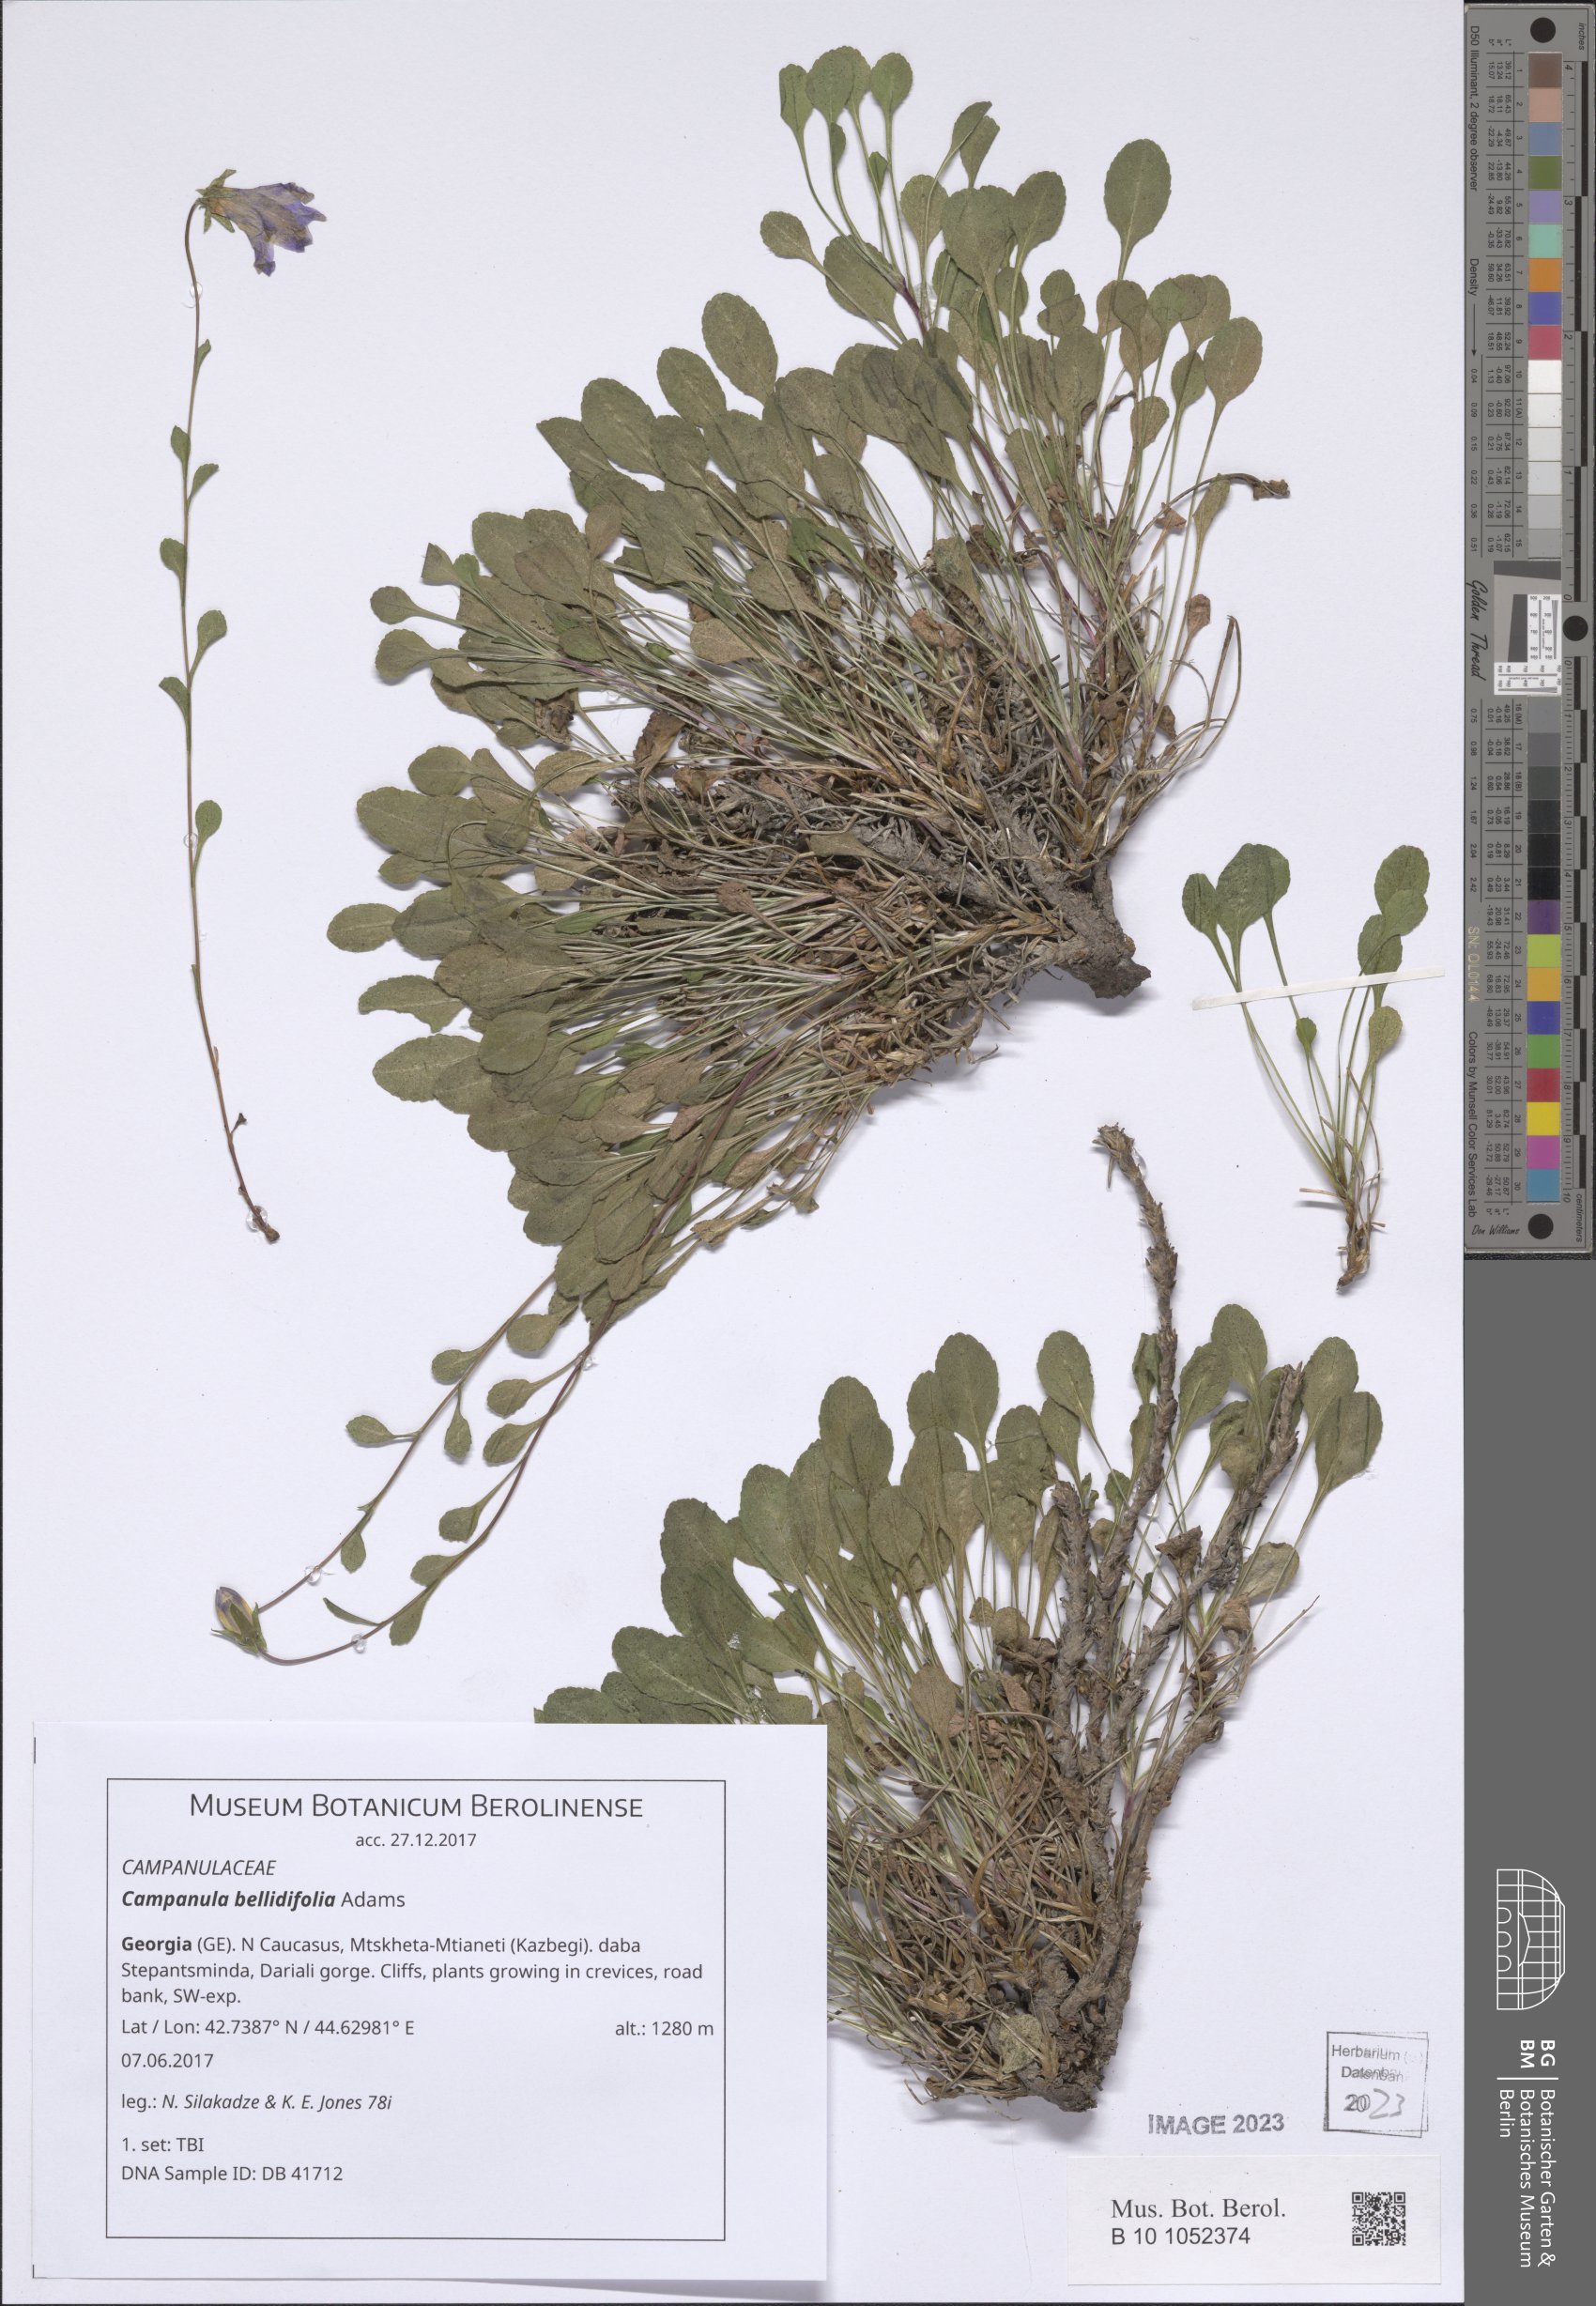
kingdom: Plantae
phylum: Tracheophyta
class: Magnoliopsida
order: Asterales
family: Campanulaceae
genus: Campanula
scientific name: Campanula bellidifolia
